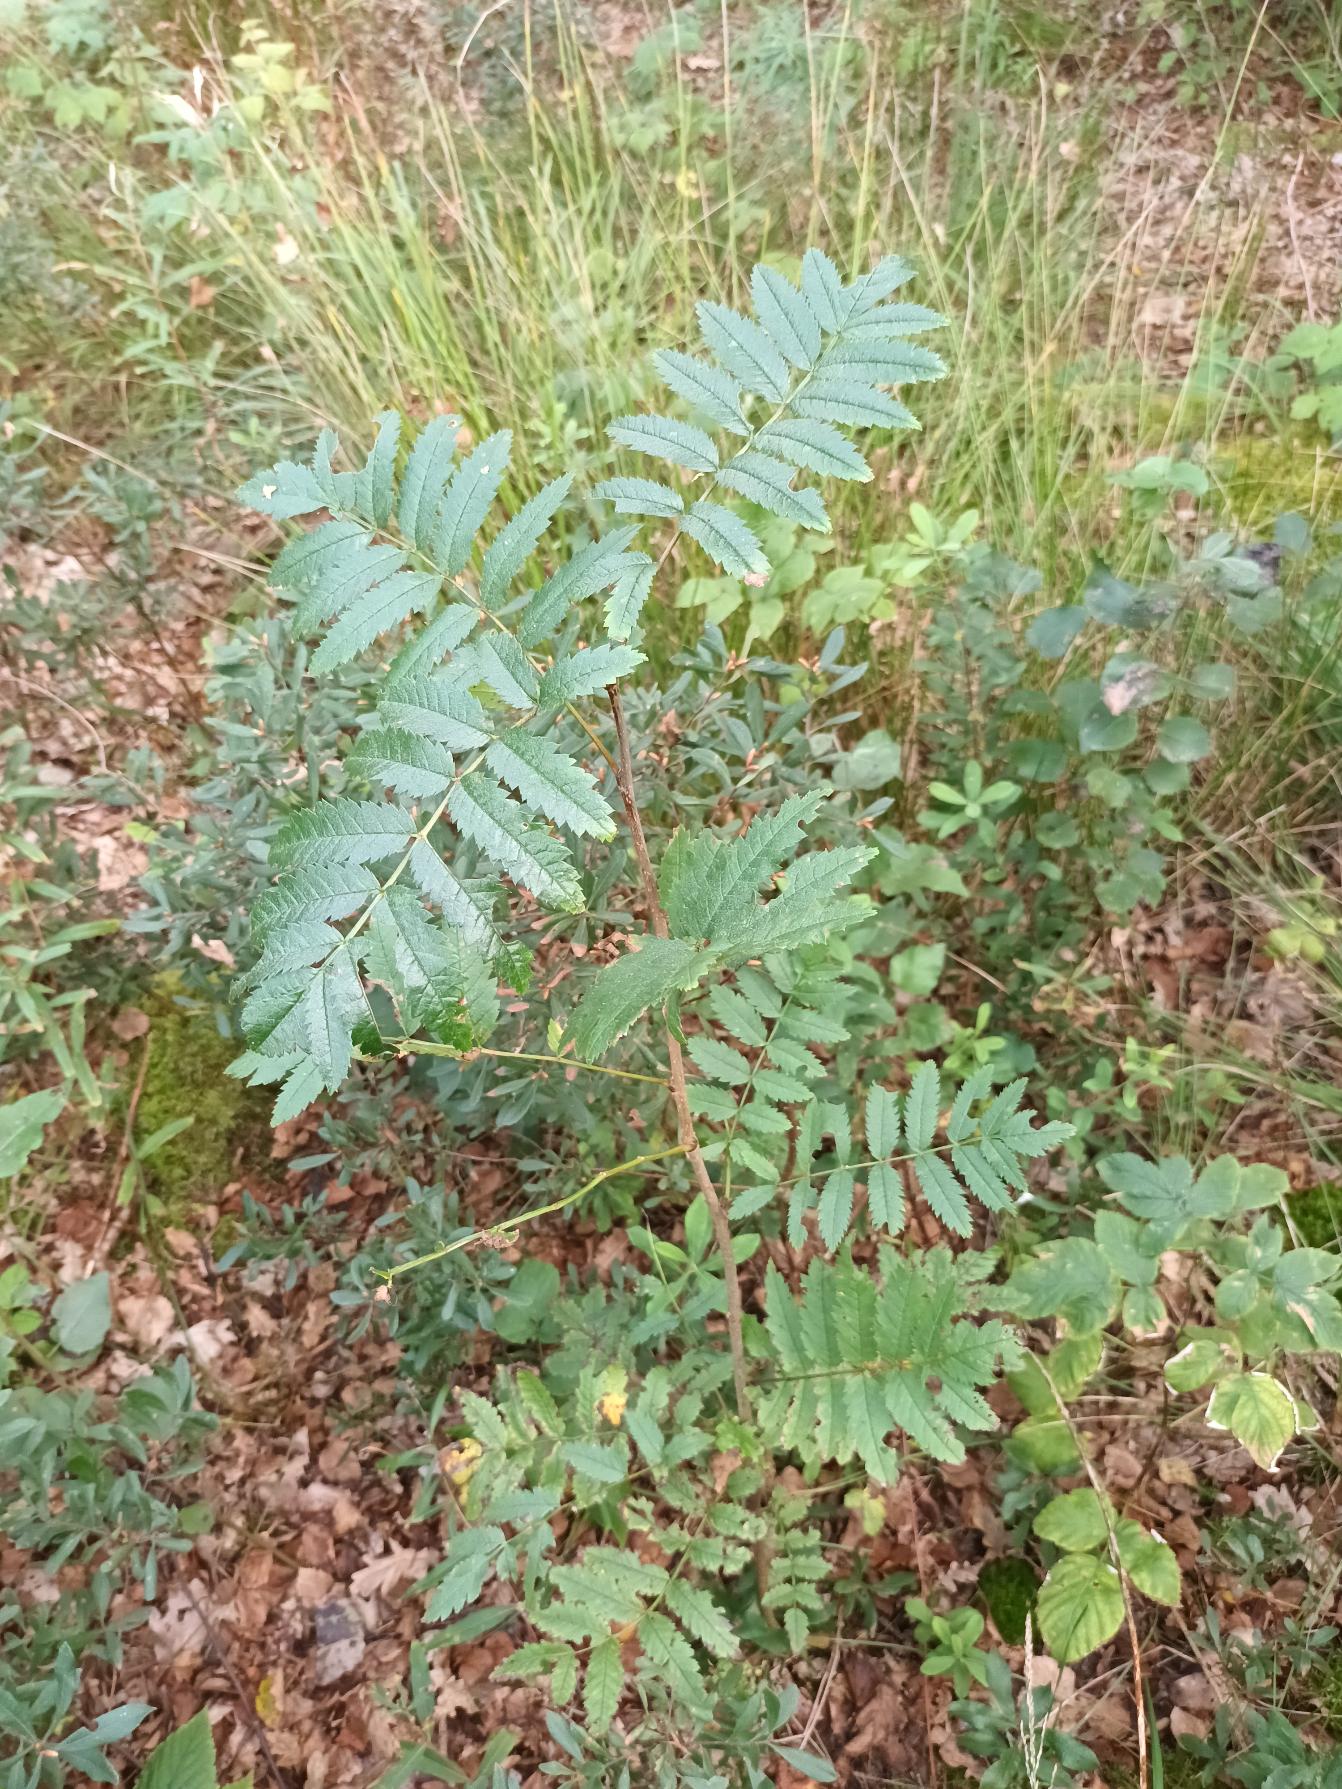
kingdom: Plantae
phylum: Tracheophyta
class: Magnoliopsida
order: Rosales
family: Rosaceae
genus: Sorbus
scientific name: Sorbus aucuparia
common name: Almindelig røn
